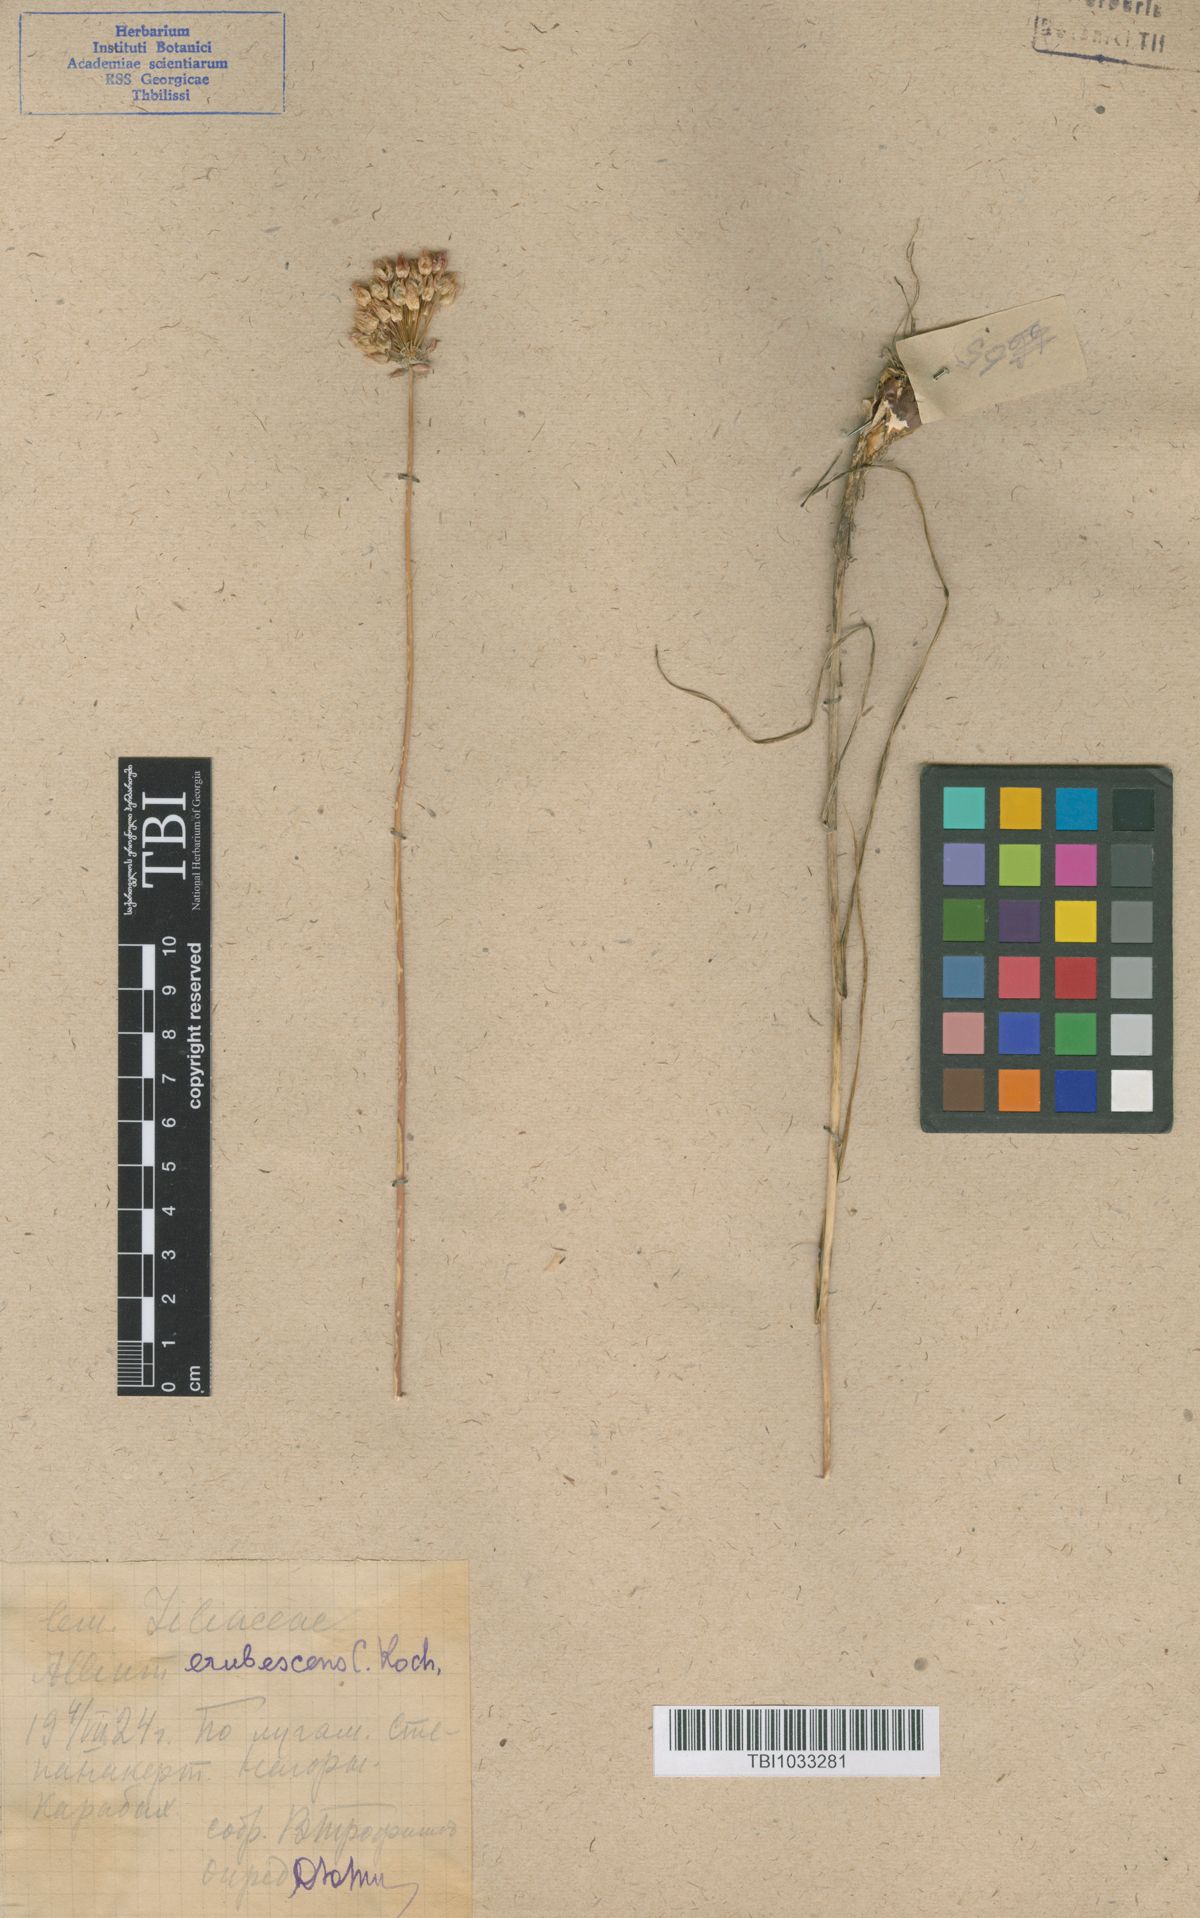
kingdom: Plantae
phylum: Tracheophyta
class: Liliopsida
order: Asparagales
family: Amaryllidaceae
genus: Allium
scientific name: Allium erubescens
